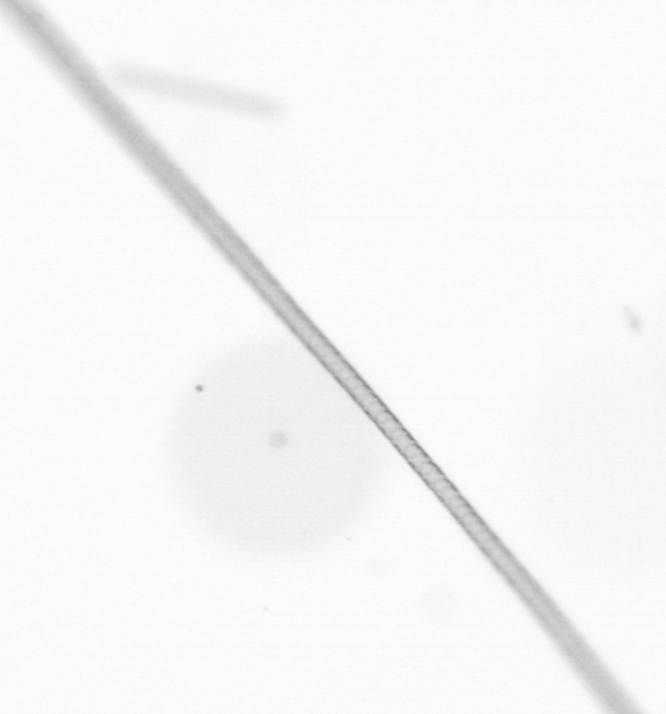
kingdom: Chromista
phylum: Ochrophyta
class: Bacillariophyceae
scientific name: Bacillariophyceae
